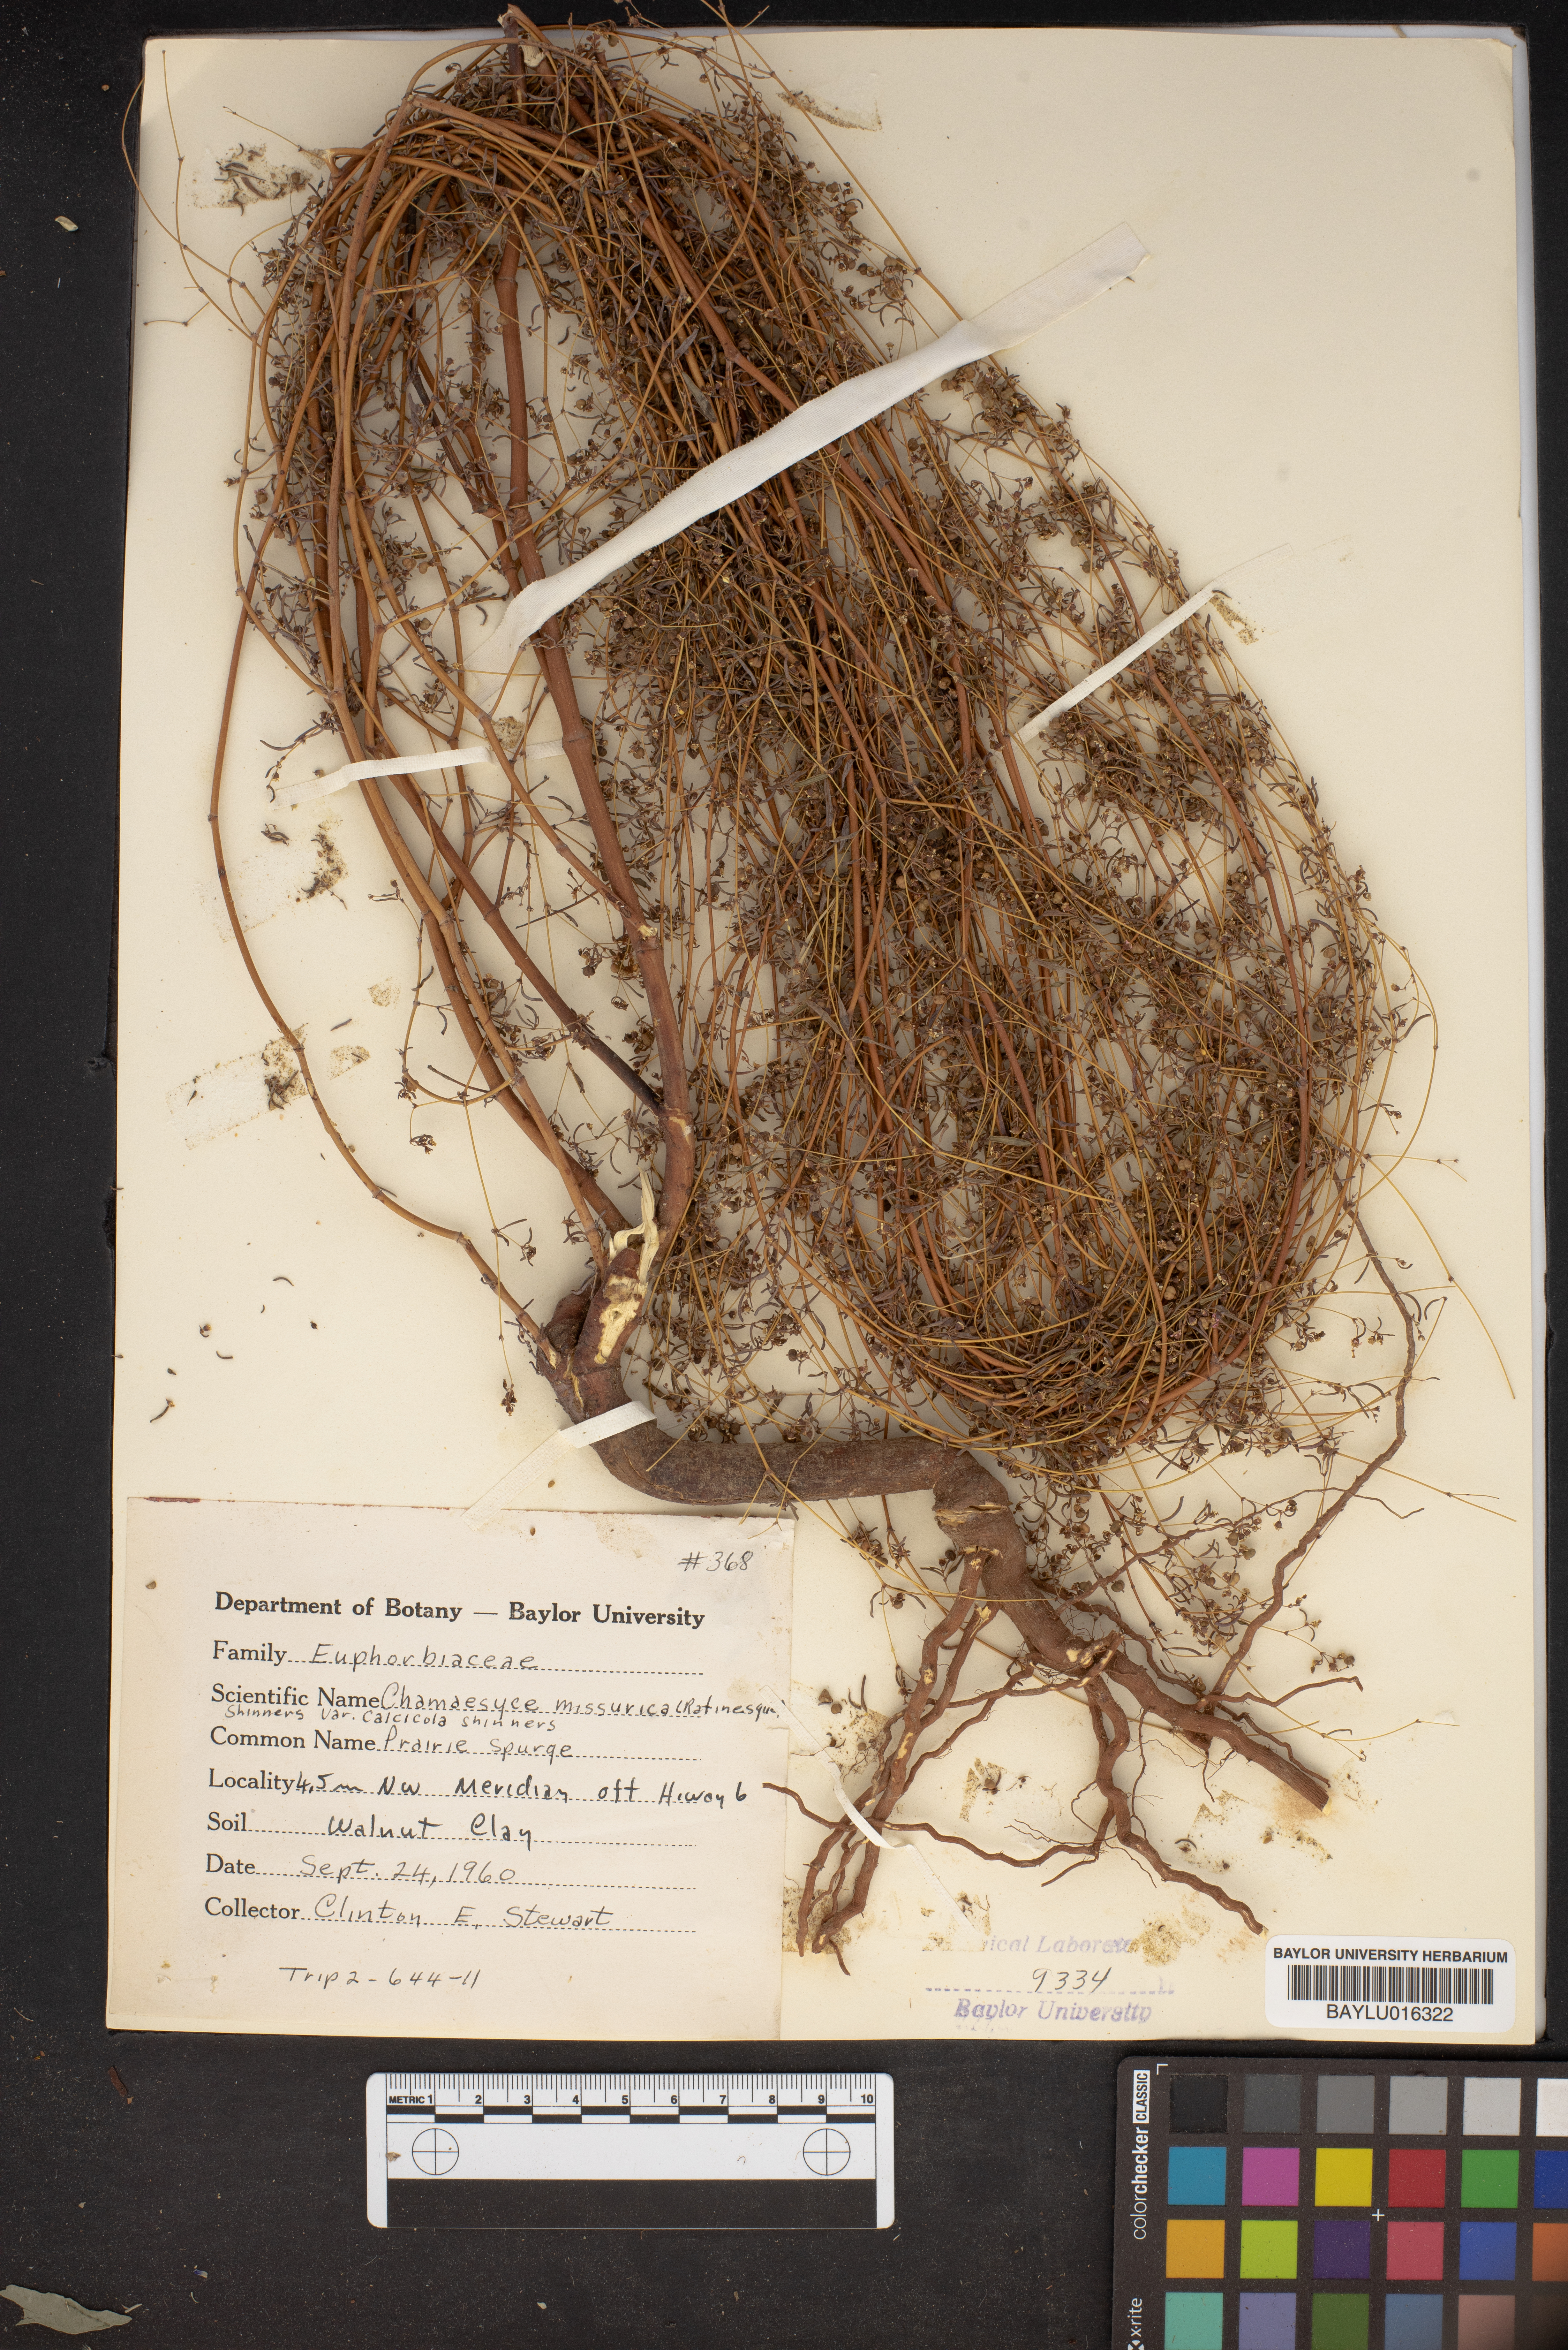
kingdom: Plantae
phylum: Tracheophyta
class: Magnoliopsida
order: Malpighiales
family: Euphorbiaceae
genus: Euphorbia
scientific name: Euphorbia missurica
